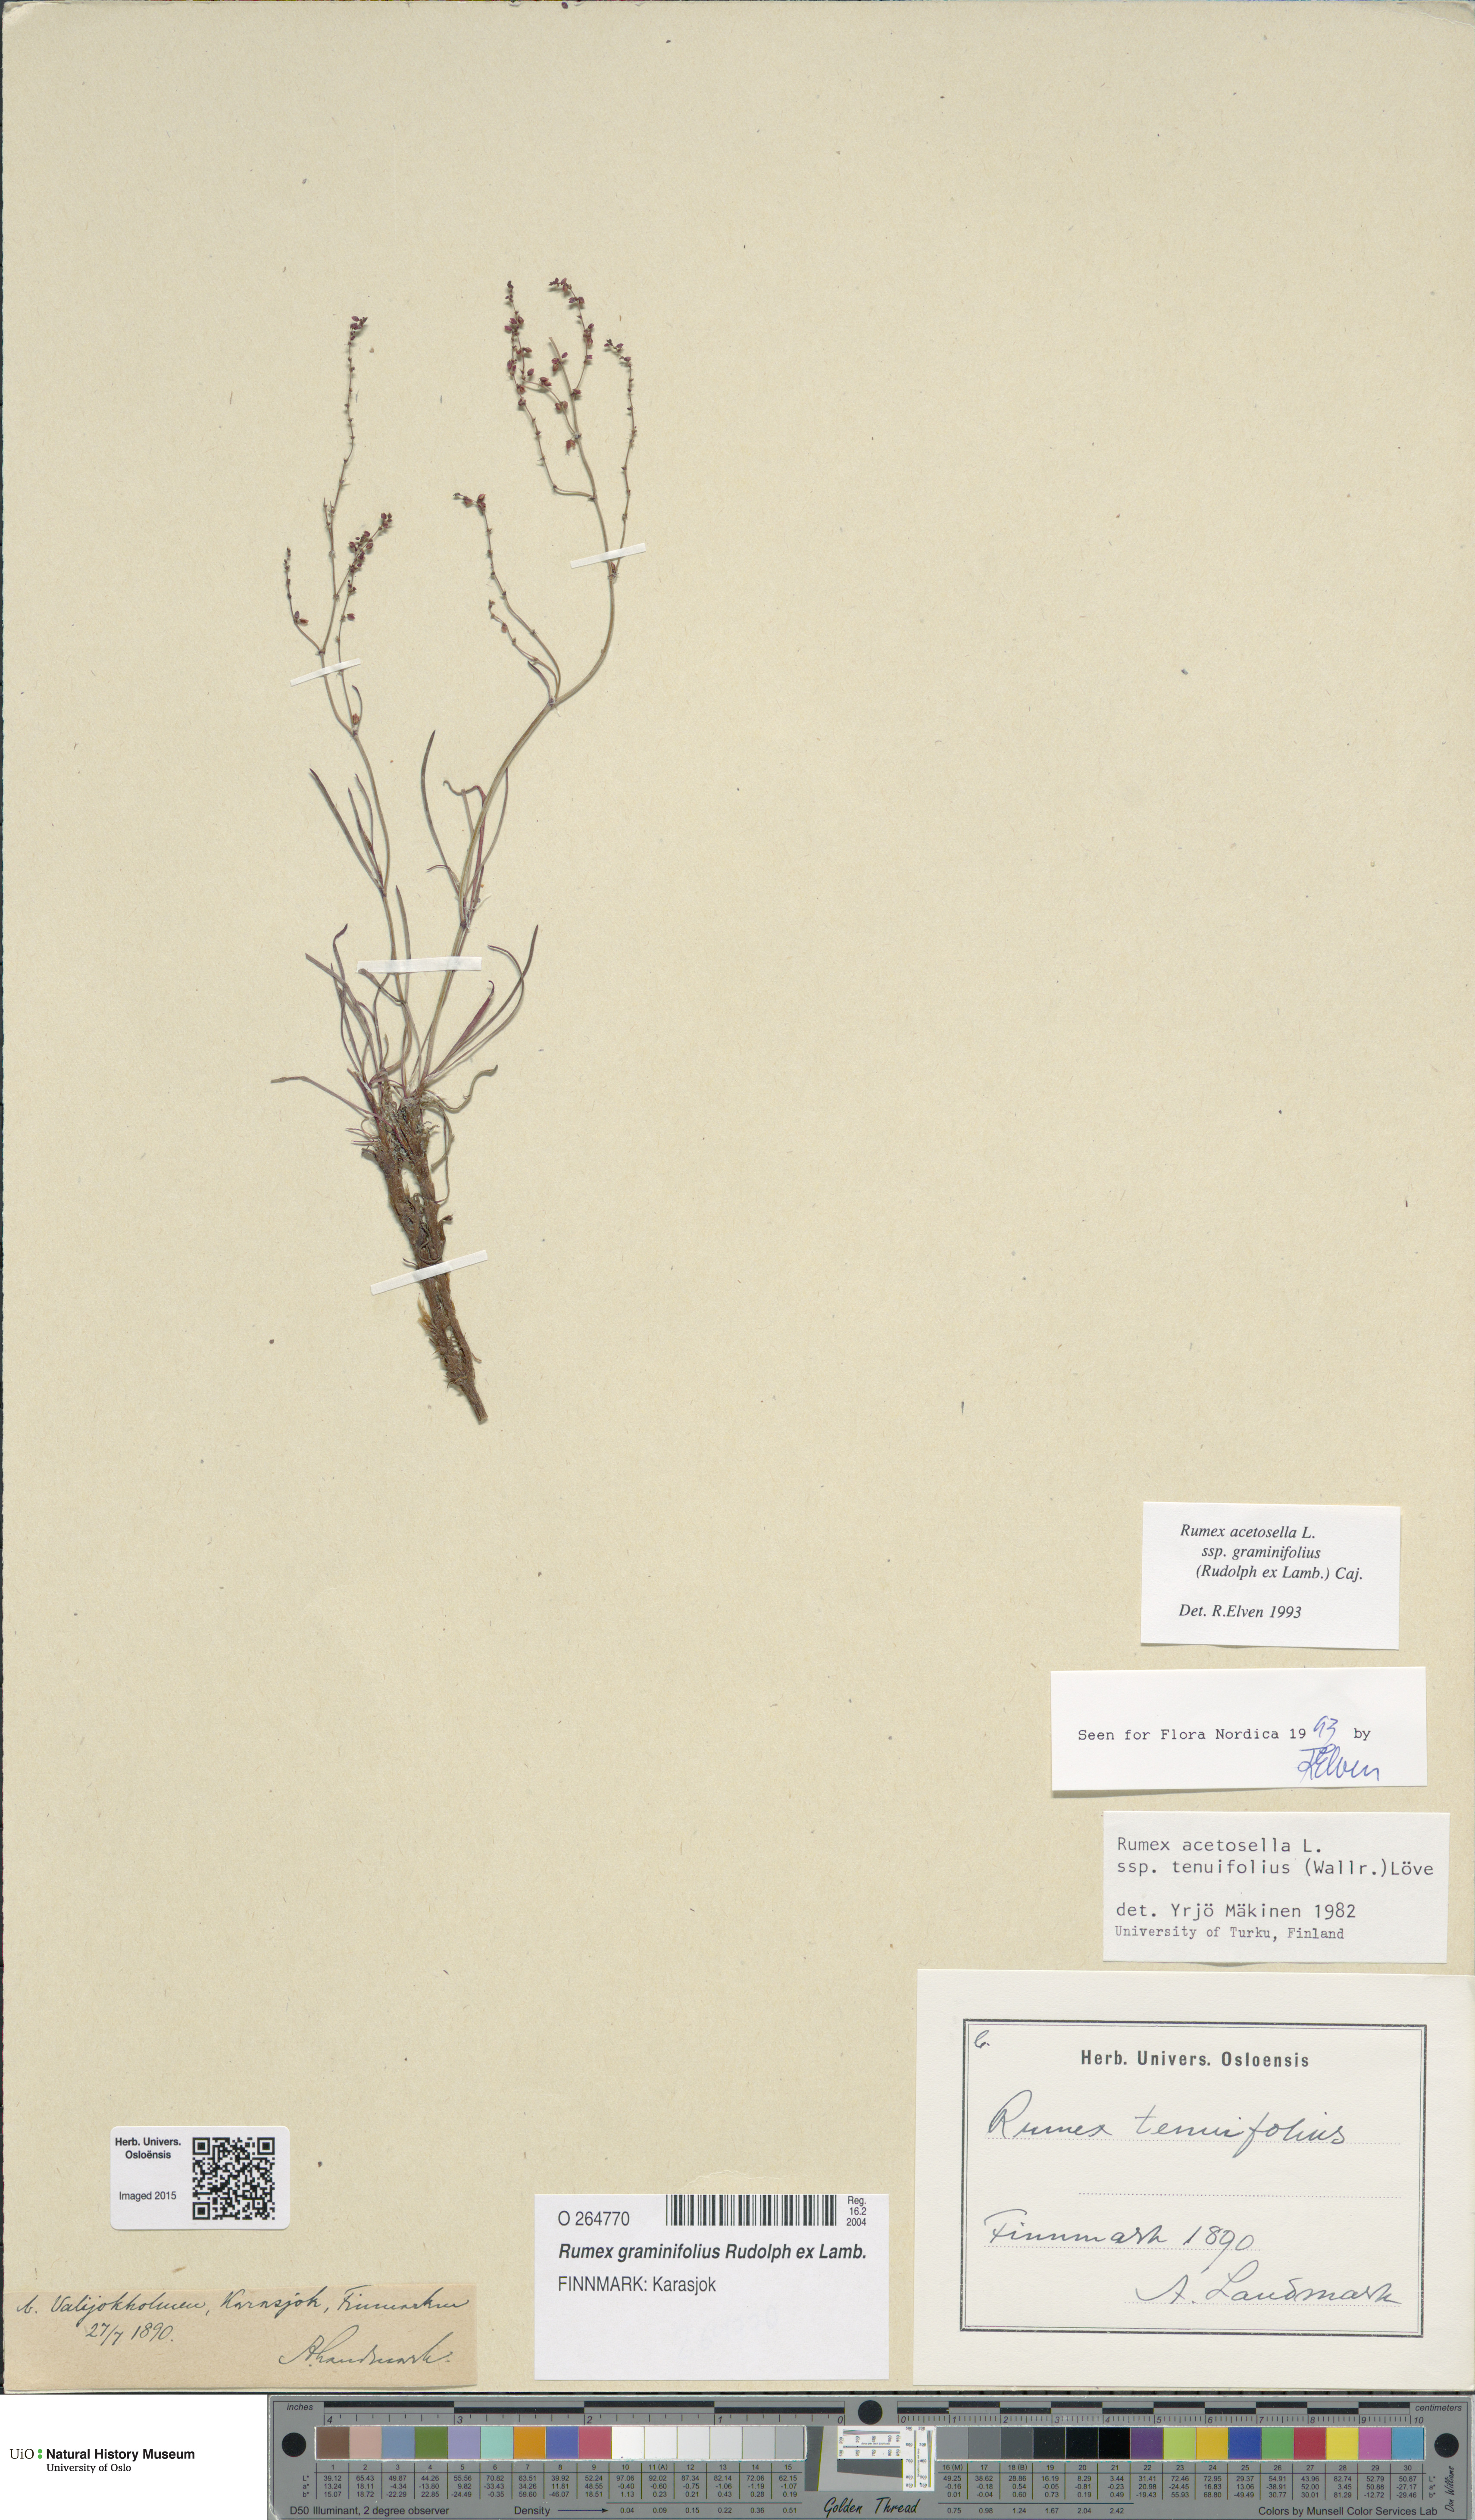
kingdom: Plantae
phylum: Tracheophyta
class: Magnoliopsida
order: Caryophyllales
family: Polygonaceae
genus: Rumex
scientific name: Rumex graminifolius
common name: Grass-leaved sorrel
